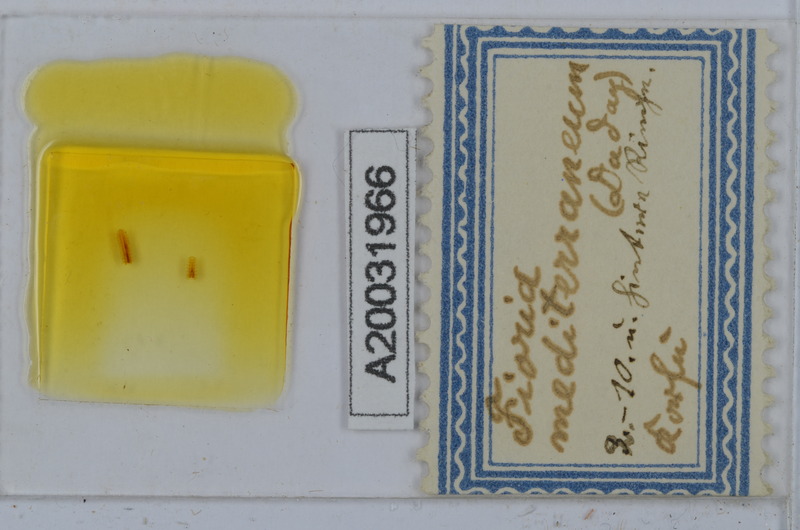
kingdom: Animalia
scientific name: Animalia
